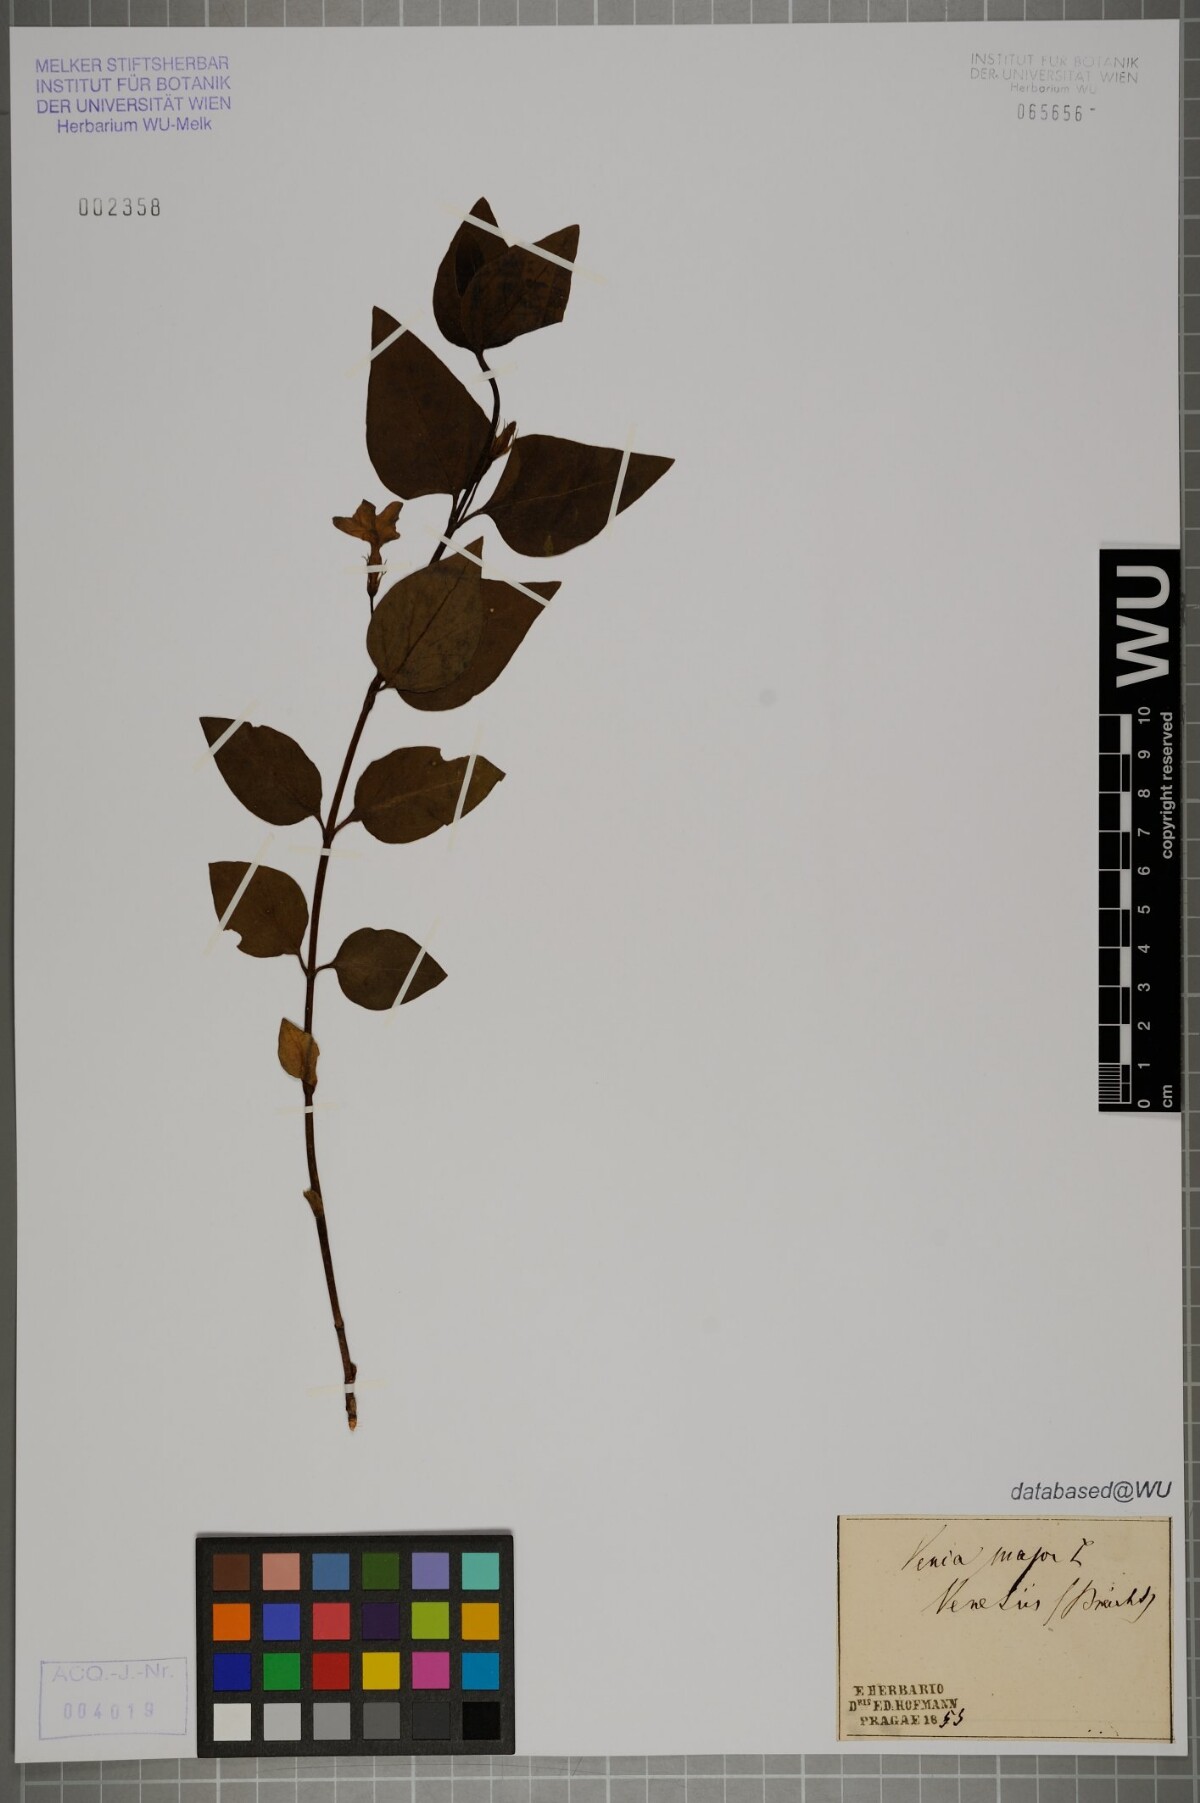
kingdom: Plantae
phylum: Tracheophyta
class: Magnoliopsida
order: Gentianales
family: Apocynaceae
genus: Vinca
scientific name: Vinca major
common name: Greater periwinkle
